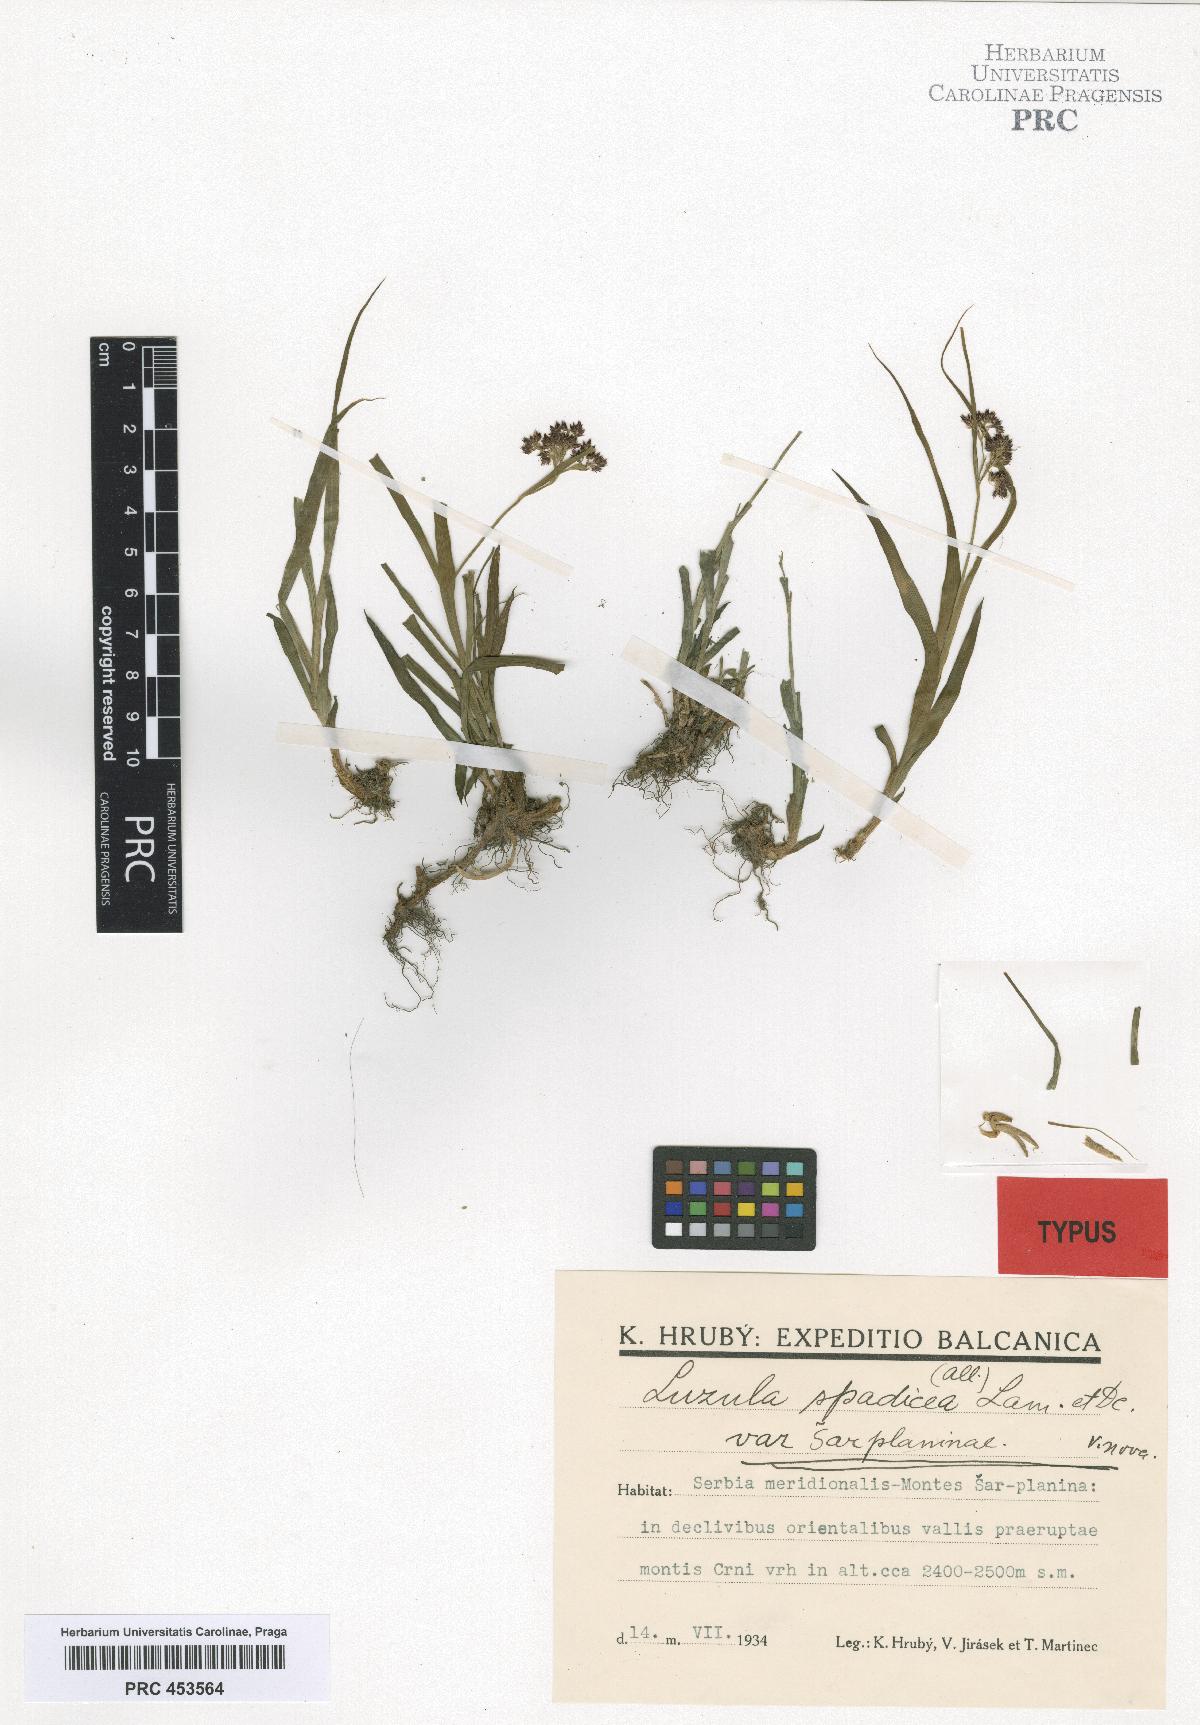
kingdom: Plantae
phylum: Tracheophyta
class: Liliopsida
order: Poales
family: Juncaceae
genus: Luzula
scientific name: Luzula sylvatica
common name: Great wood-rush
